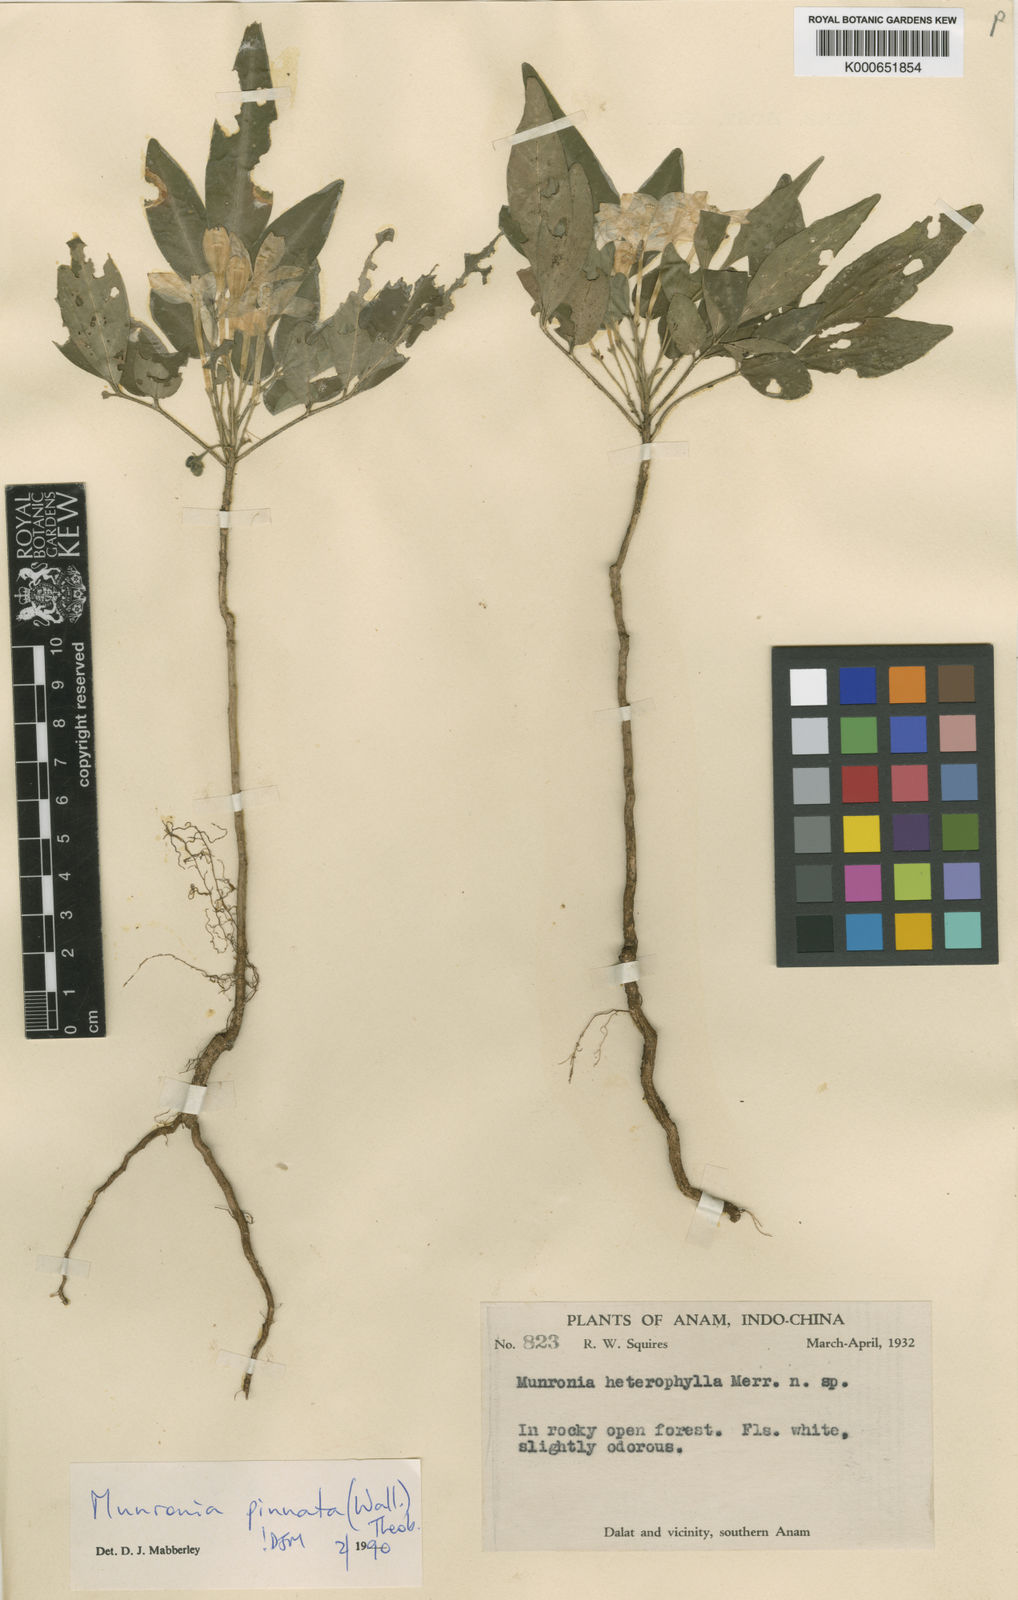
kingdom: Plantae
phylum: Tracheophyta
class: Magnoliopsida
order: Sapindales
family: Meliaceae
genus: Munronia
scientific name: Munronia pinnata
